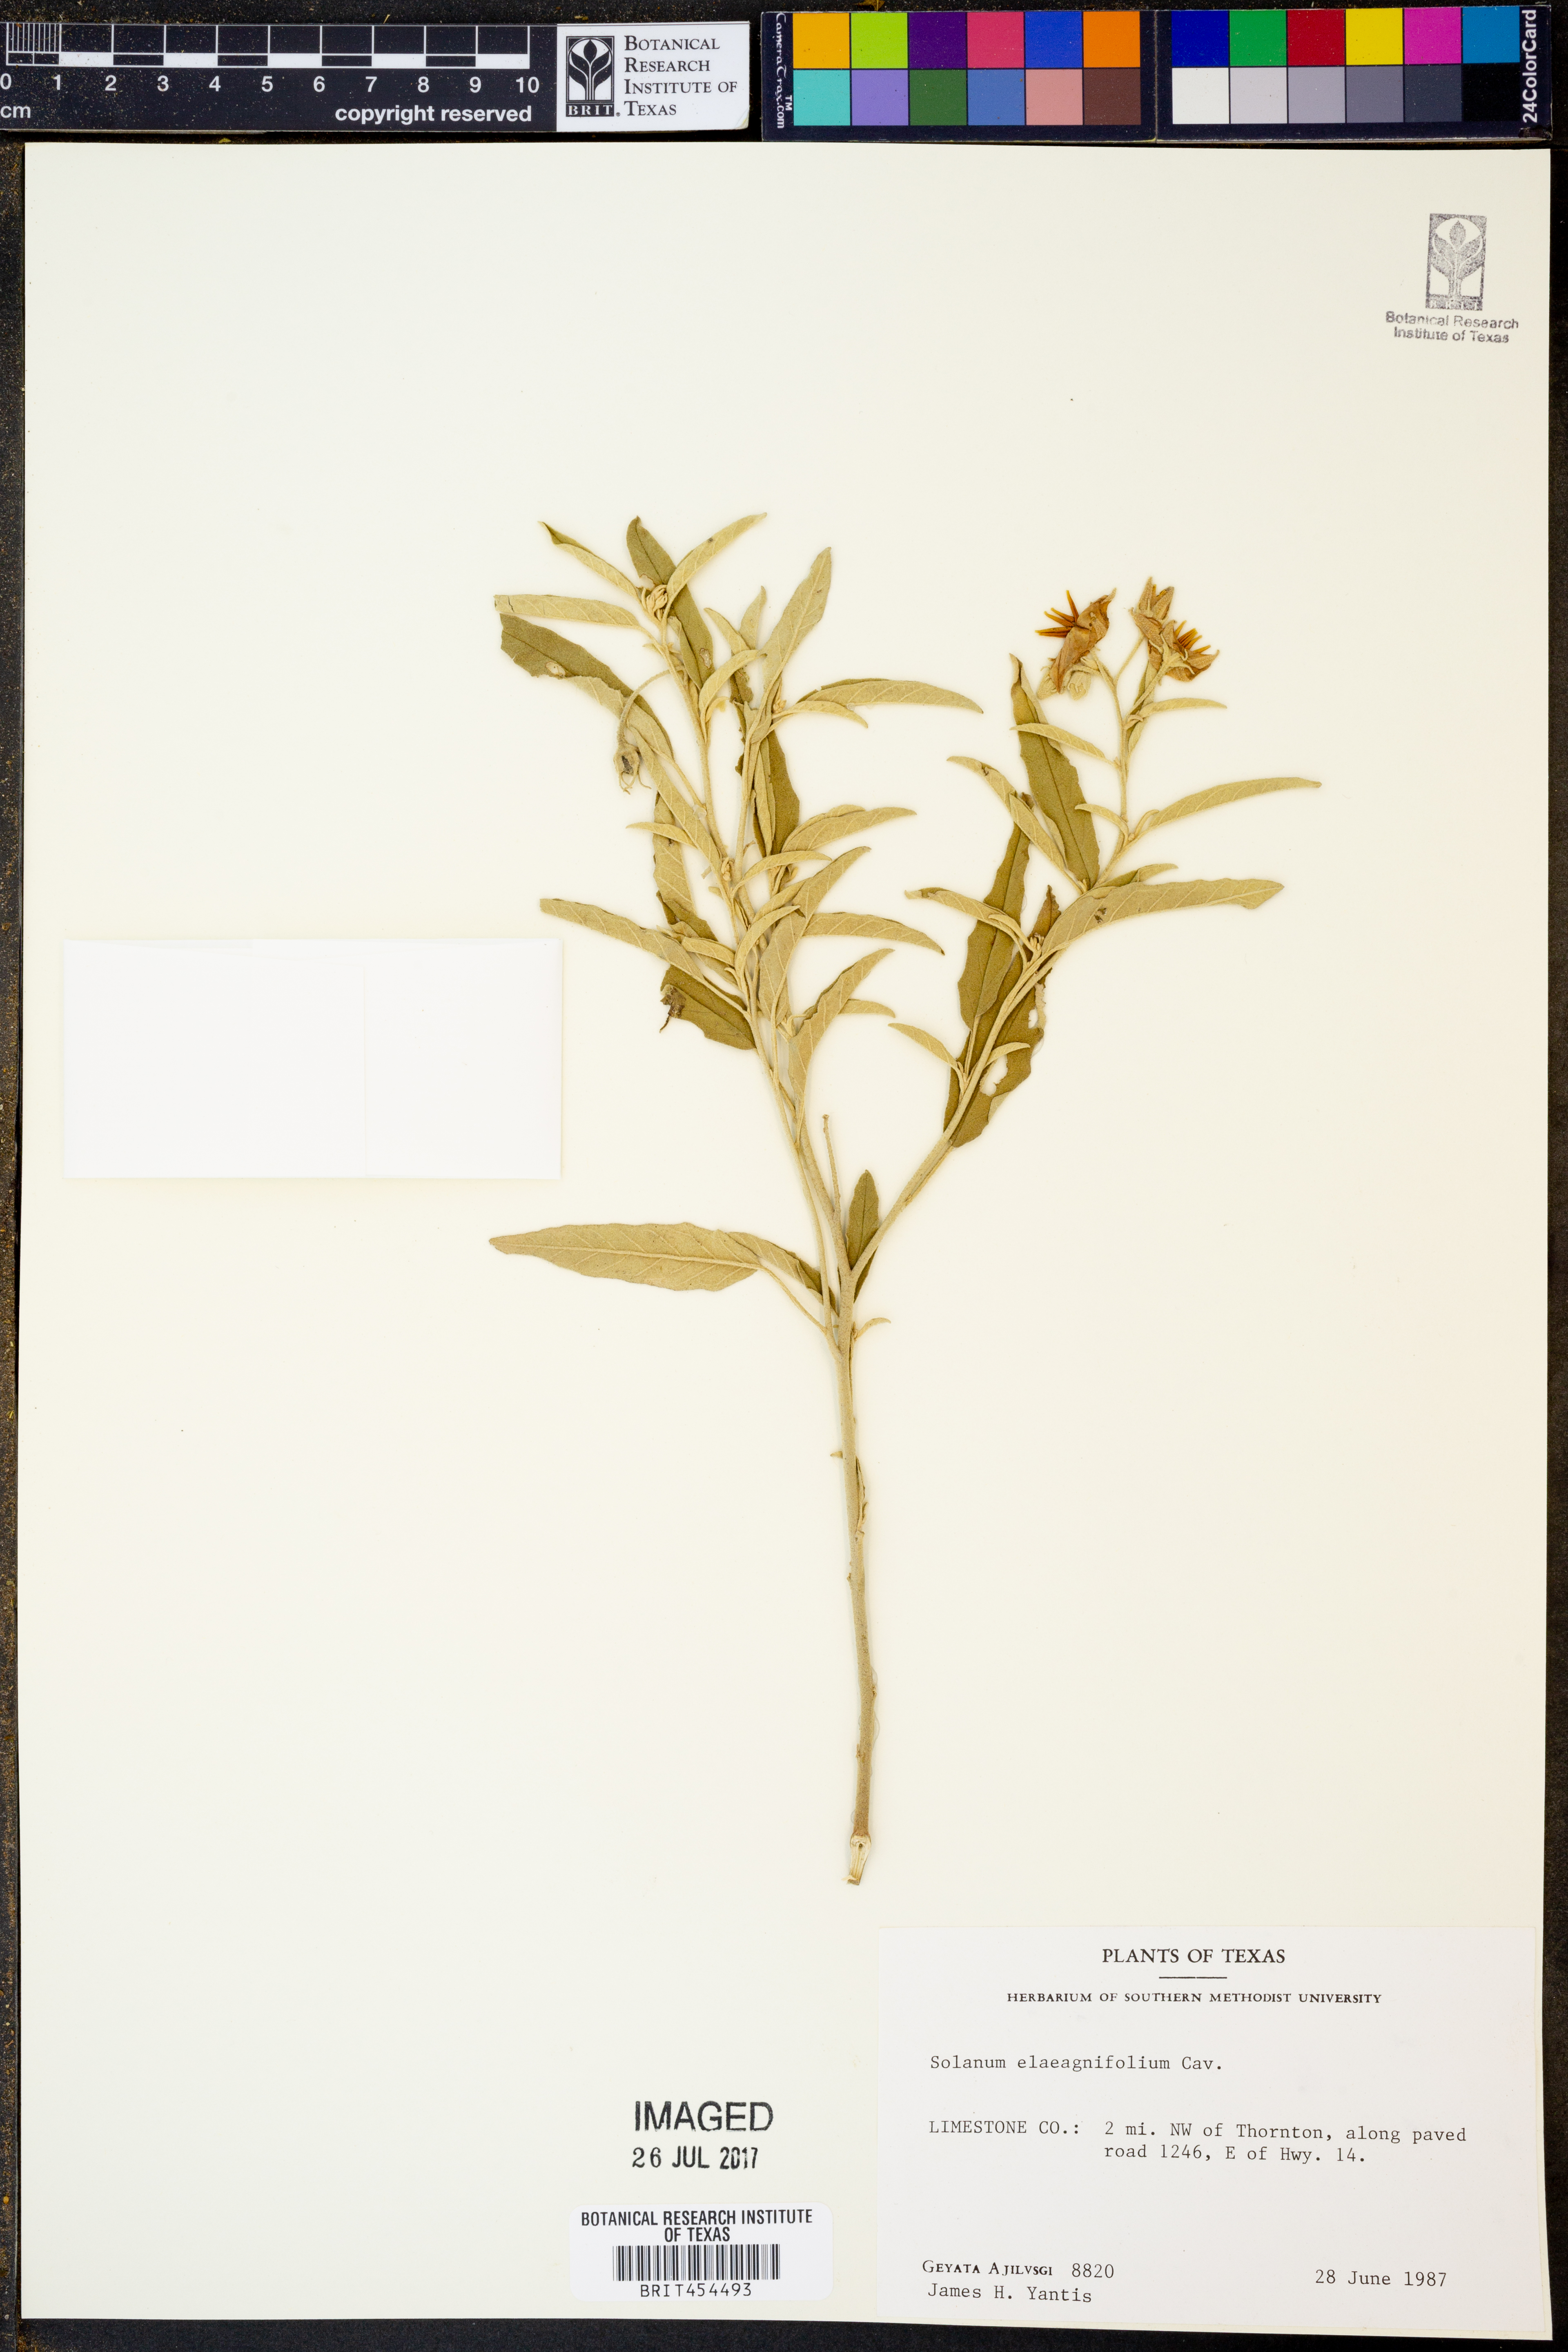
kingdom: Plantae
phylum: Tracheophyta
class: Magnoliopsida
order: Solanales
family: Solanaceae
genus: Solanum
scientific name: Solanum elaeagnifolium
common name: Silverleaf nightshade
